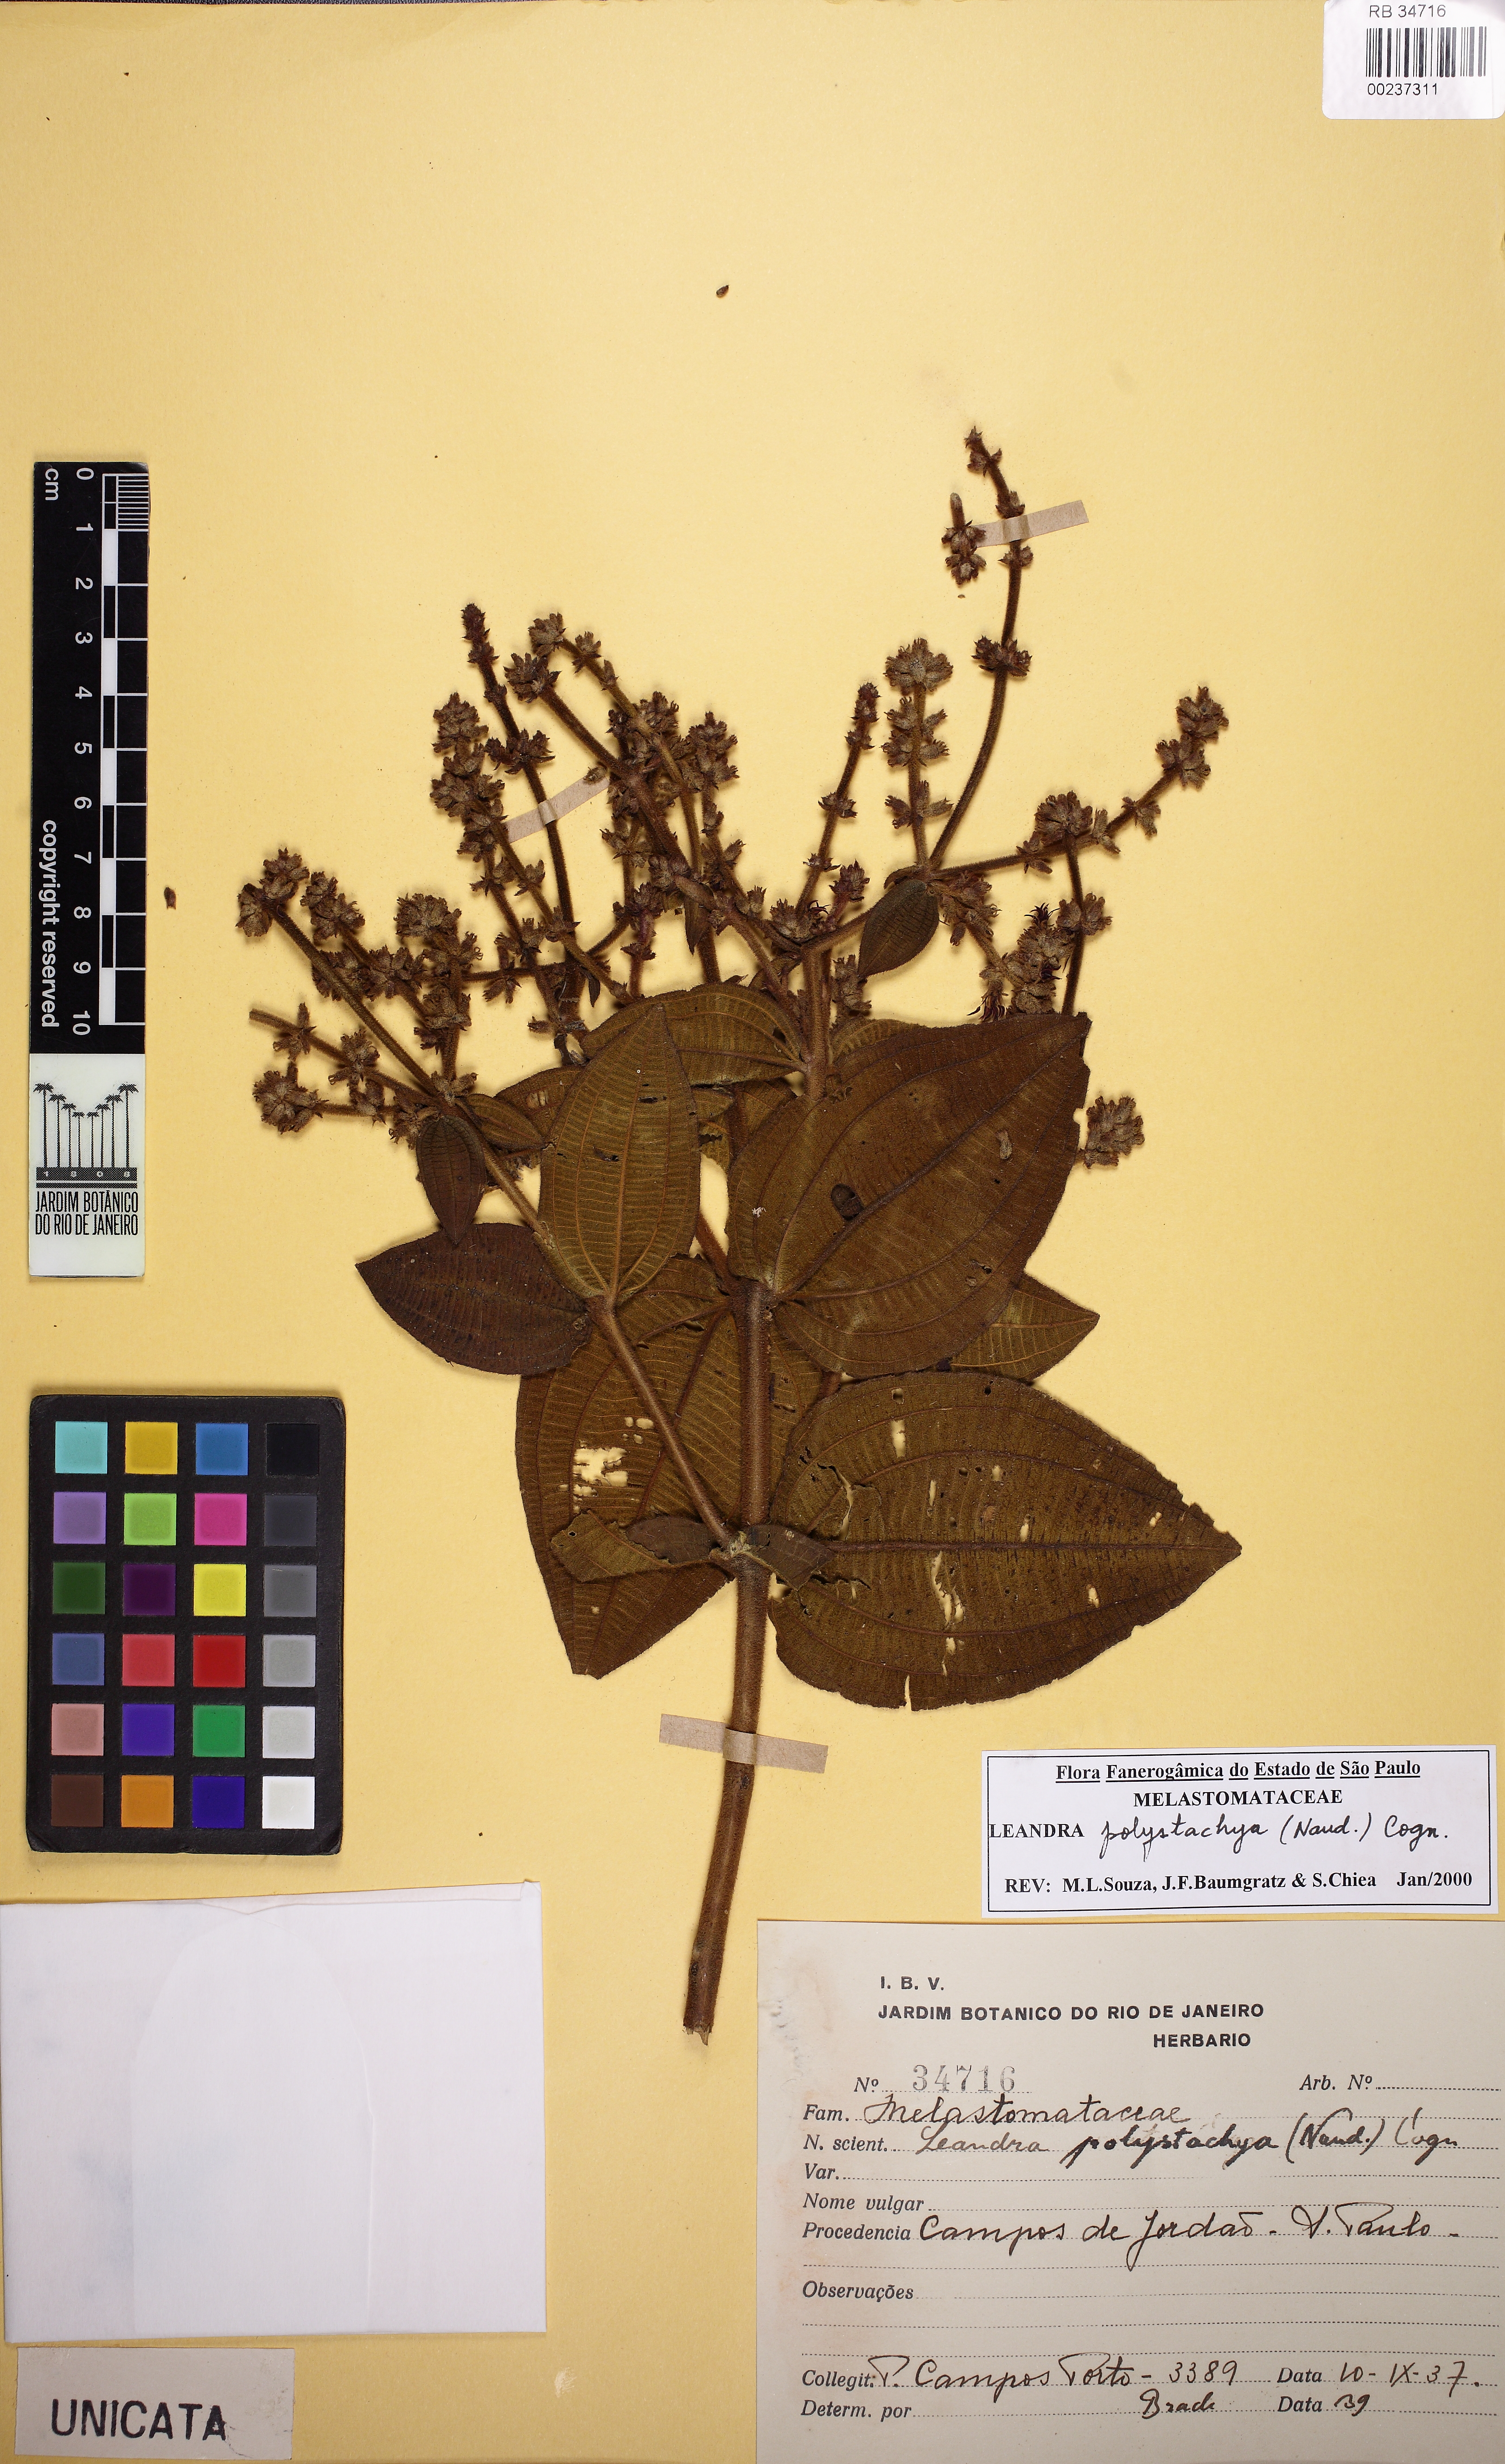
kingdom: Plantae
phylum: Tracheophyta
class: Magnoliopsida
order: Myrtales
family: Melastomataceae
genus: Miconia
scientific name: Miconia polystachya
